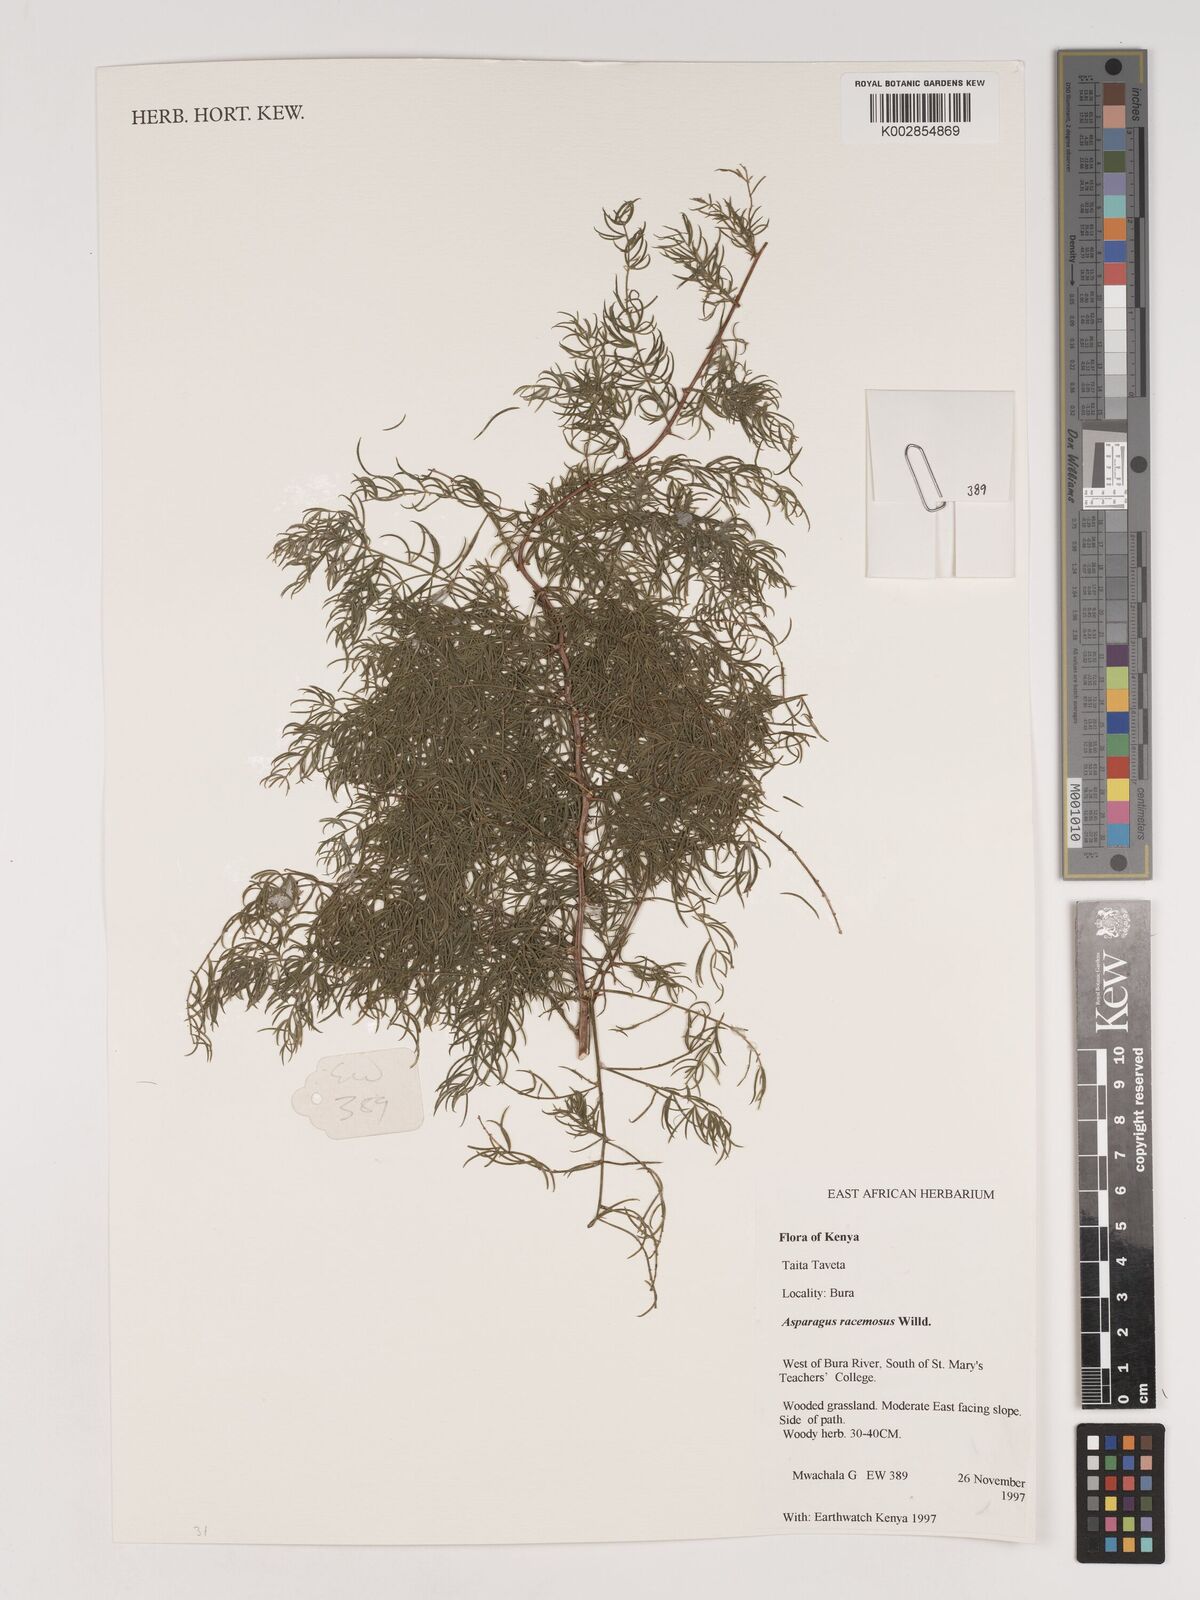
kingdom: Plantae
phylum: Tracheophyta
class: Liliopsida
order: Asparagales
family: Asparagaceae
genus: Asparagus
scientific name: Asparagus racemosus
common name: Asparagus-fern
